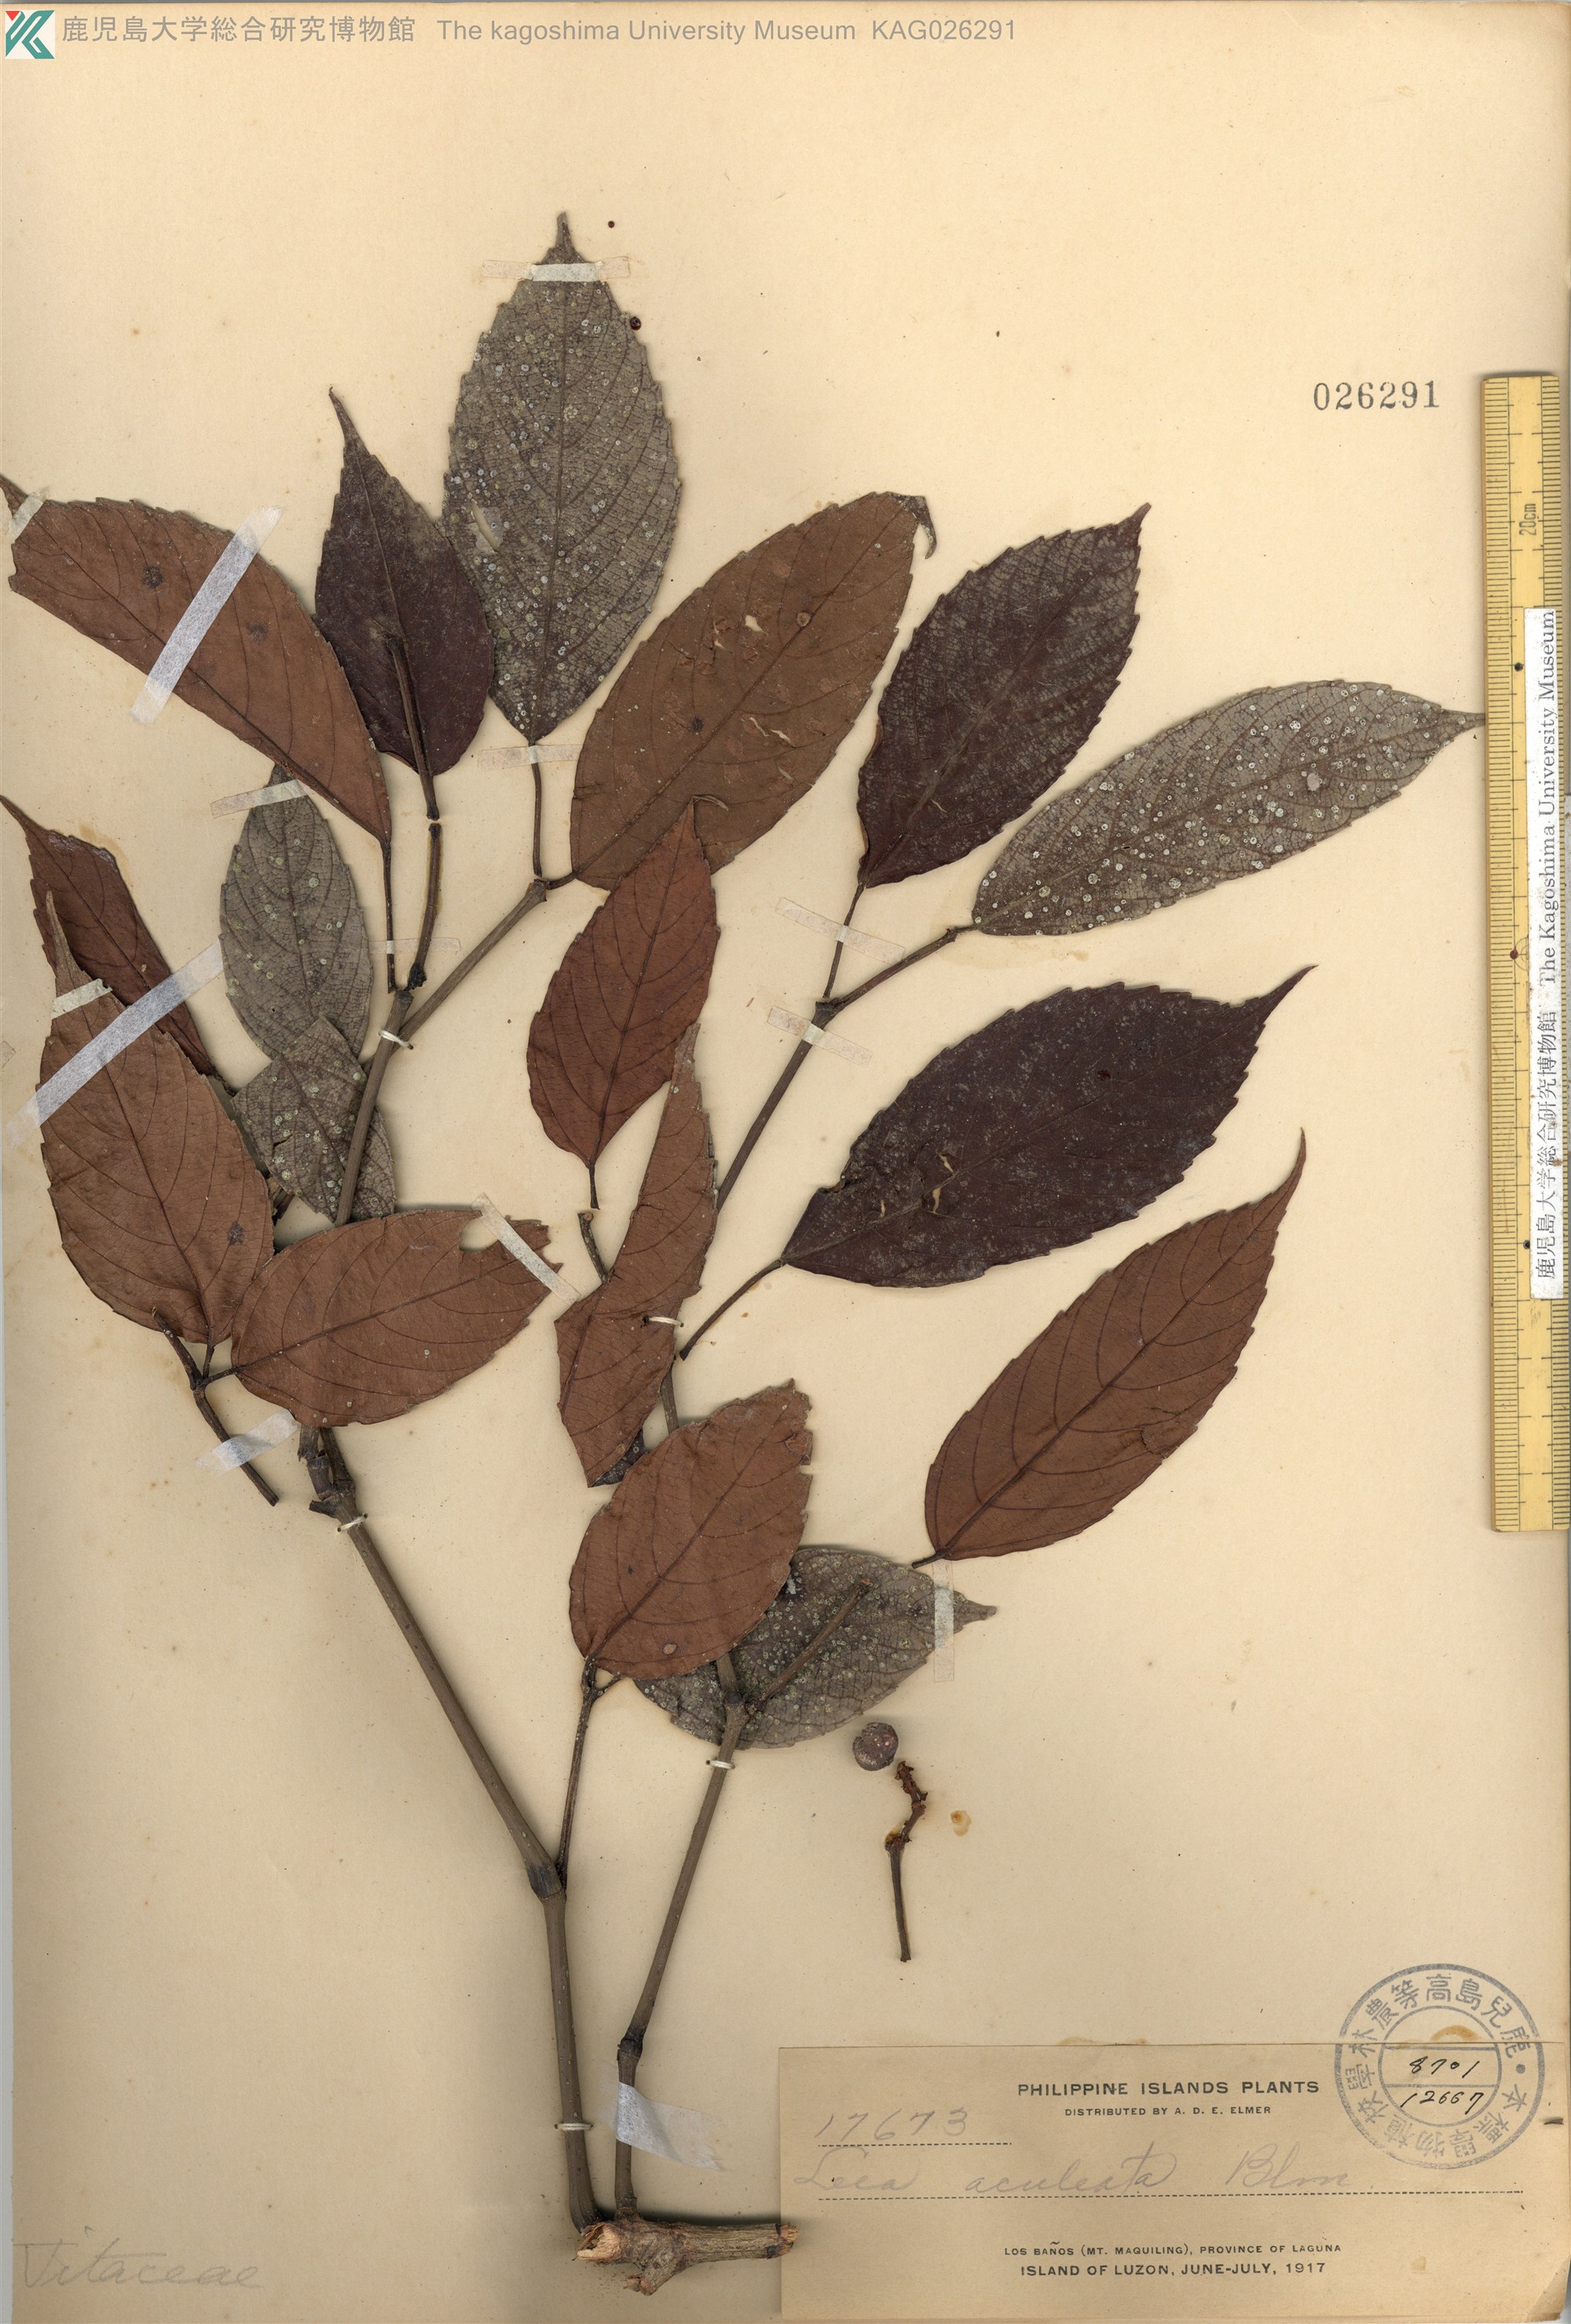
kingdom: Plantae
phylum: Tracheophyta
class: Magnoliopsida
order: Vitales
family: Vitaceae
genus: Leea
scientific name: Leea aculeata
